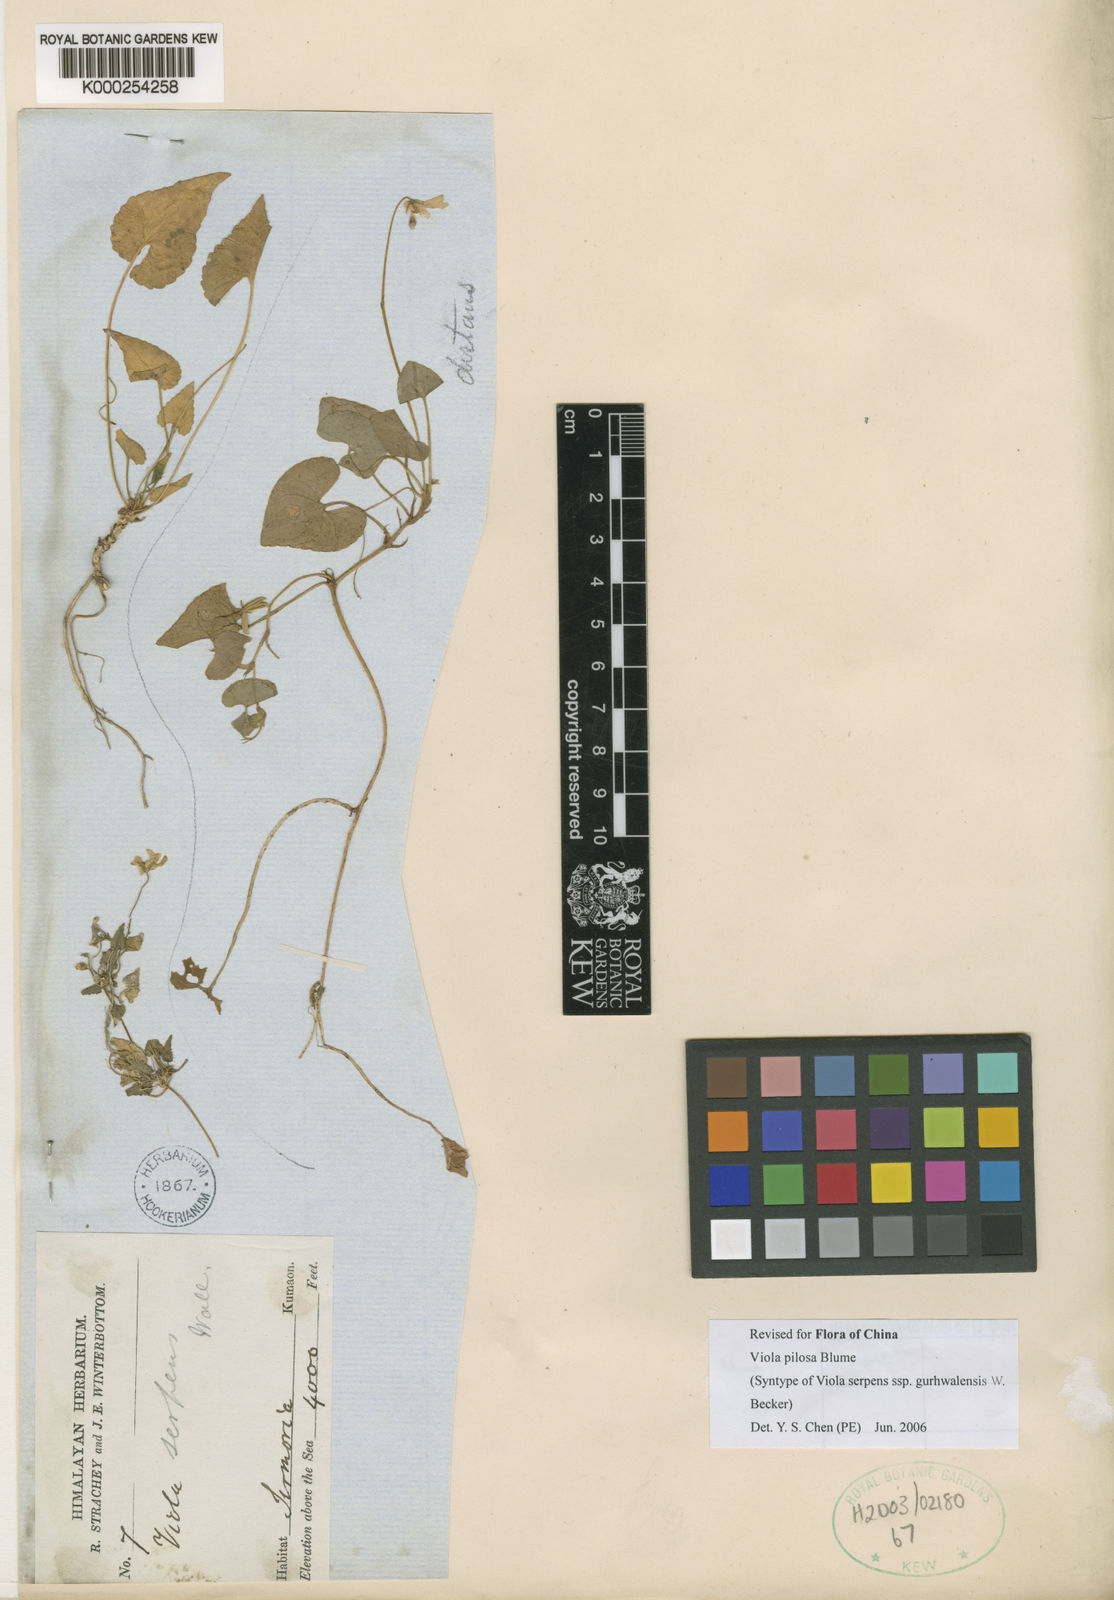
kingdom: Plantae
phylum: Tracheophyta
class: Magnoliopsida
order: Malpighiales
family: Violaceae
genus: Viola
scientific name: Viola
